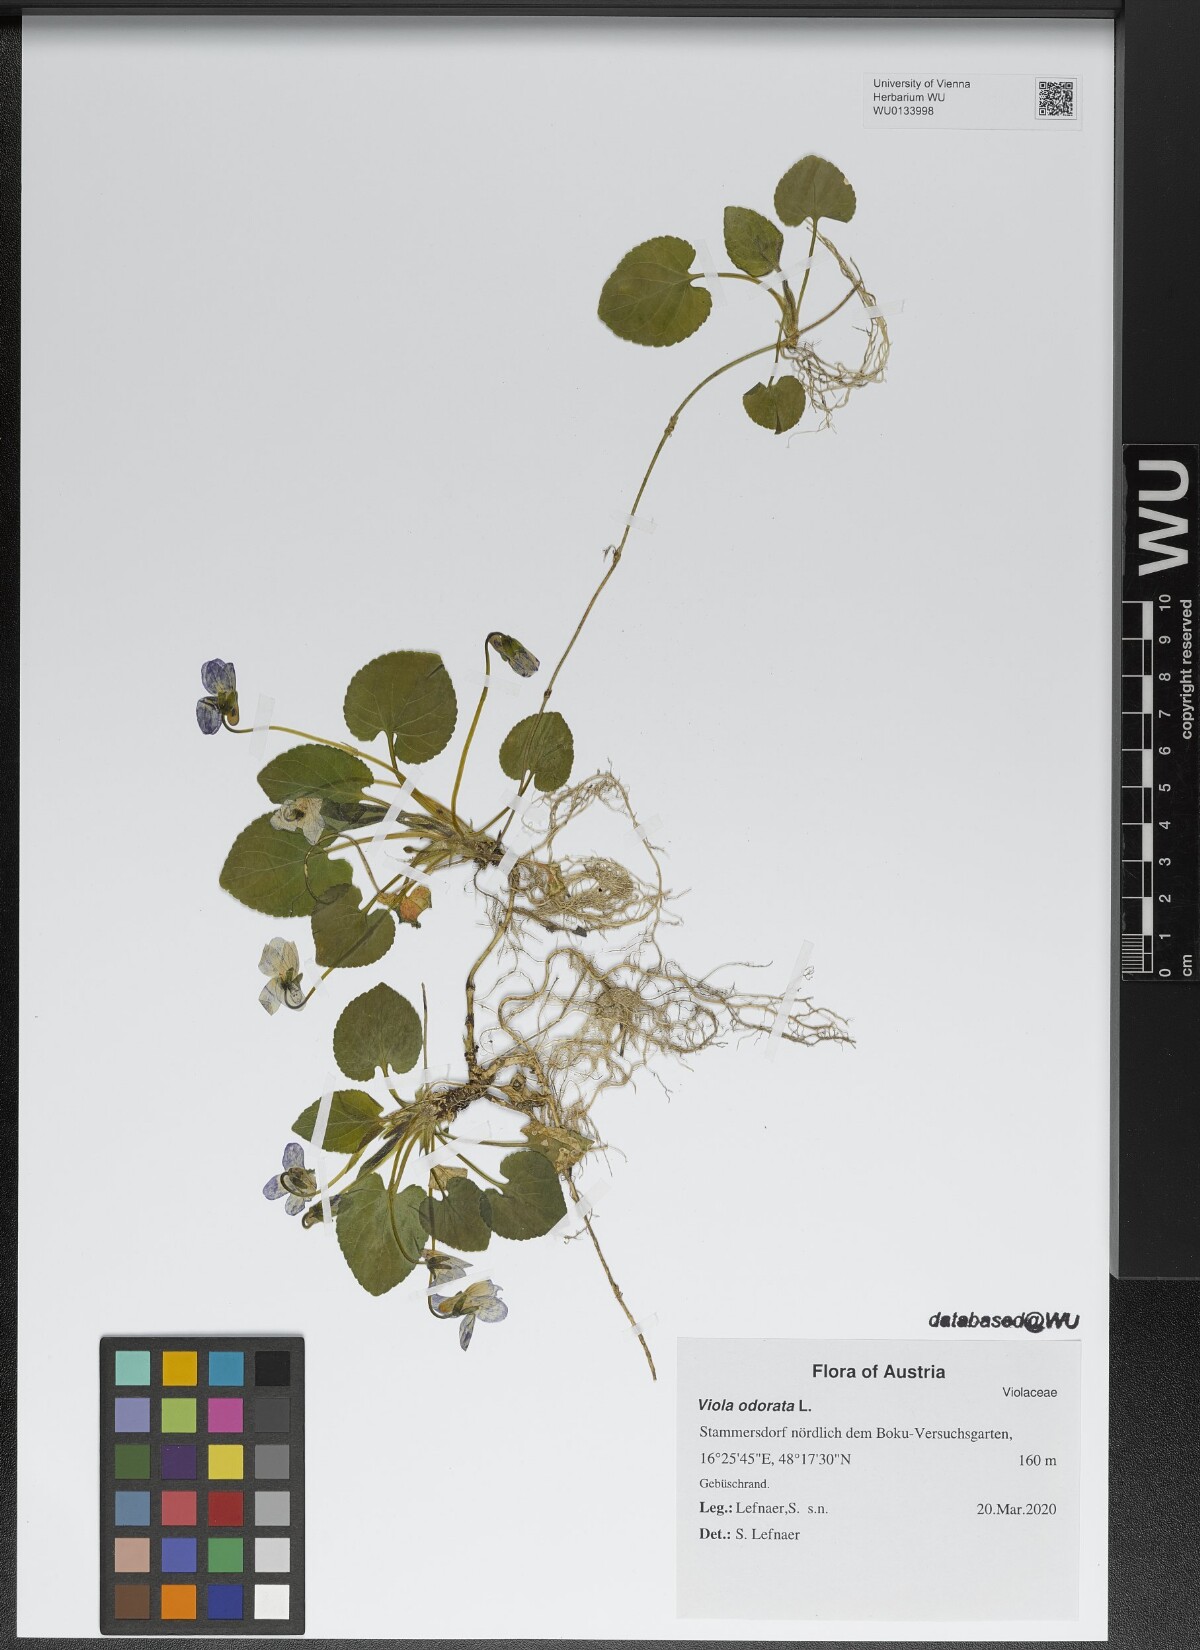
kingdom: Plantae
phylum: Tracheophyta
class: Magnoliopsida
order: Malpighiales
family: Violaceae
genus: Viola
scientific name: Viola odorata
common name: Sweet violet
